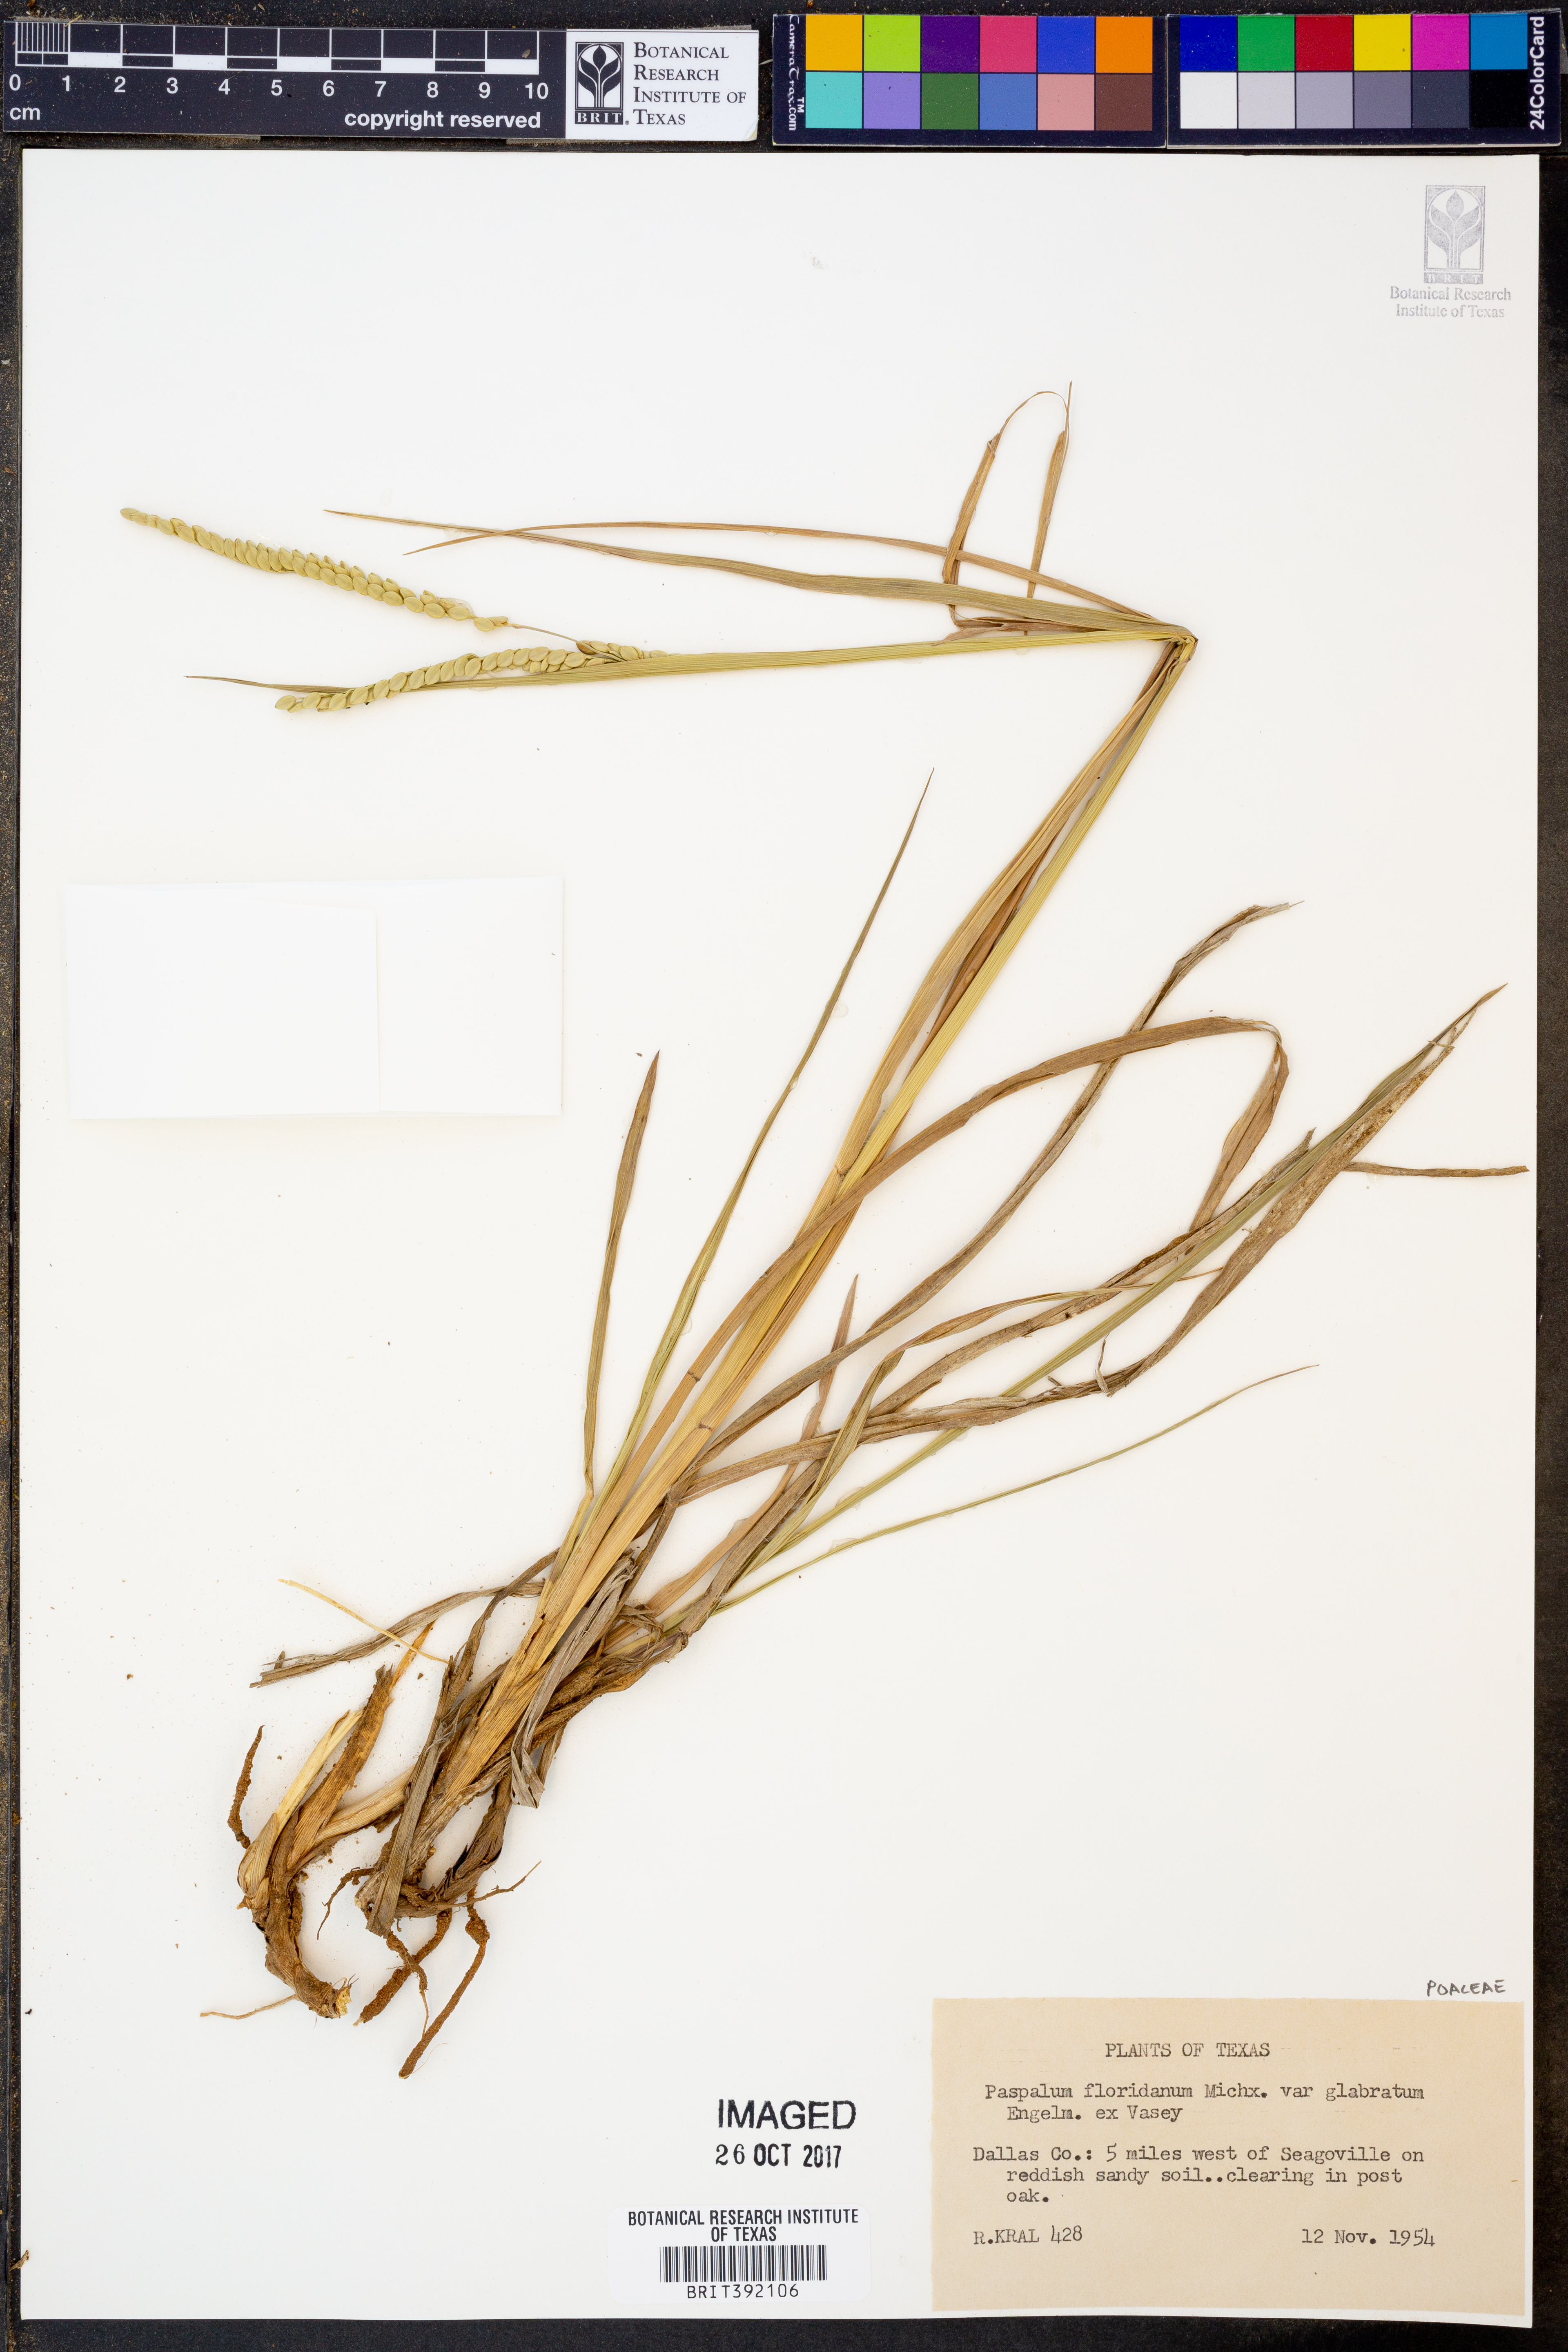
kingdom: Plantae
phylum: Tracheophyta
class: Liliopsida
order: Poales
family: Poaceae
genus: Paspalum
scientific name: Paspalum floridanum
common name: Florida paspalum
